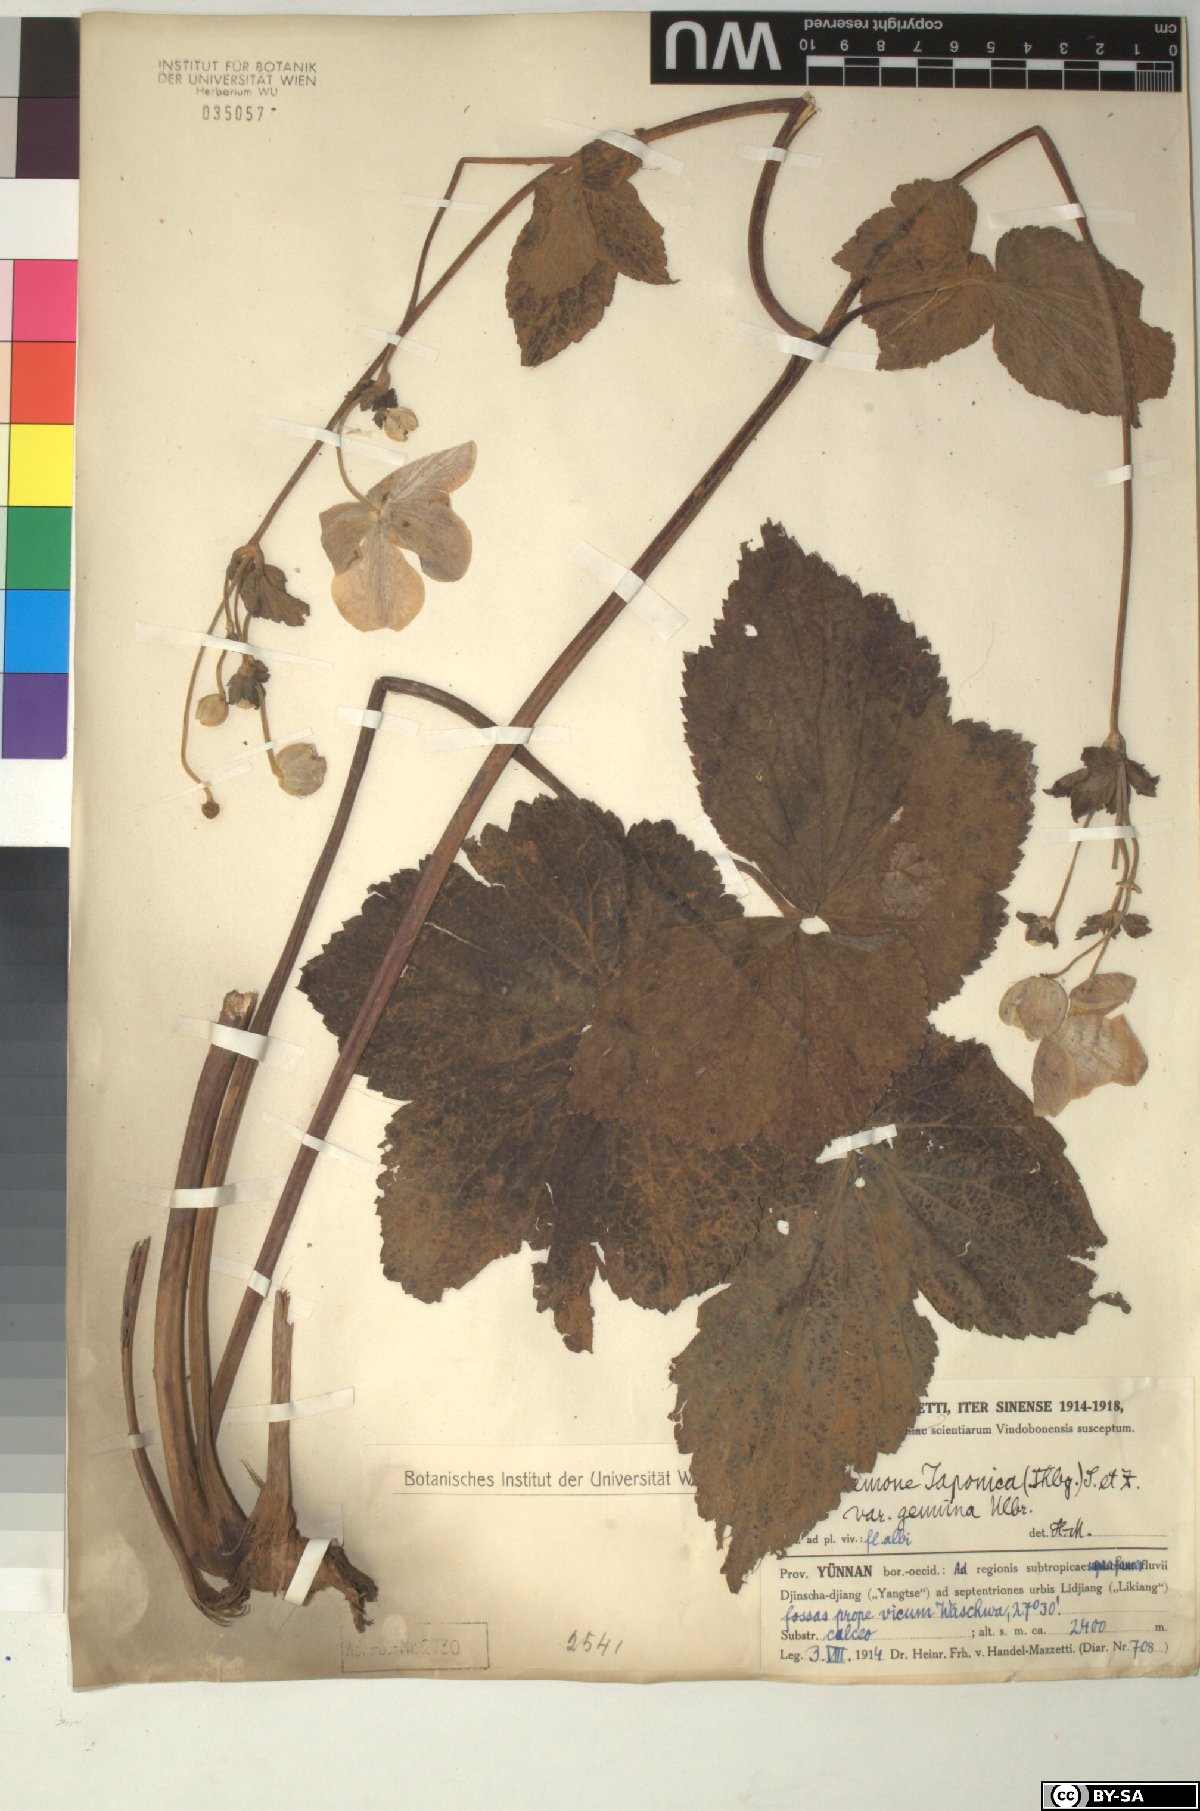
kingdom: Plantae
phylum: Tracheophyta
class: Magnoliopsida
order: Ranunculales
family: Ranunculaceae
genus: Eriocapitella
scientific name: Eriocapitella japonica
